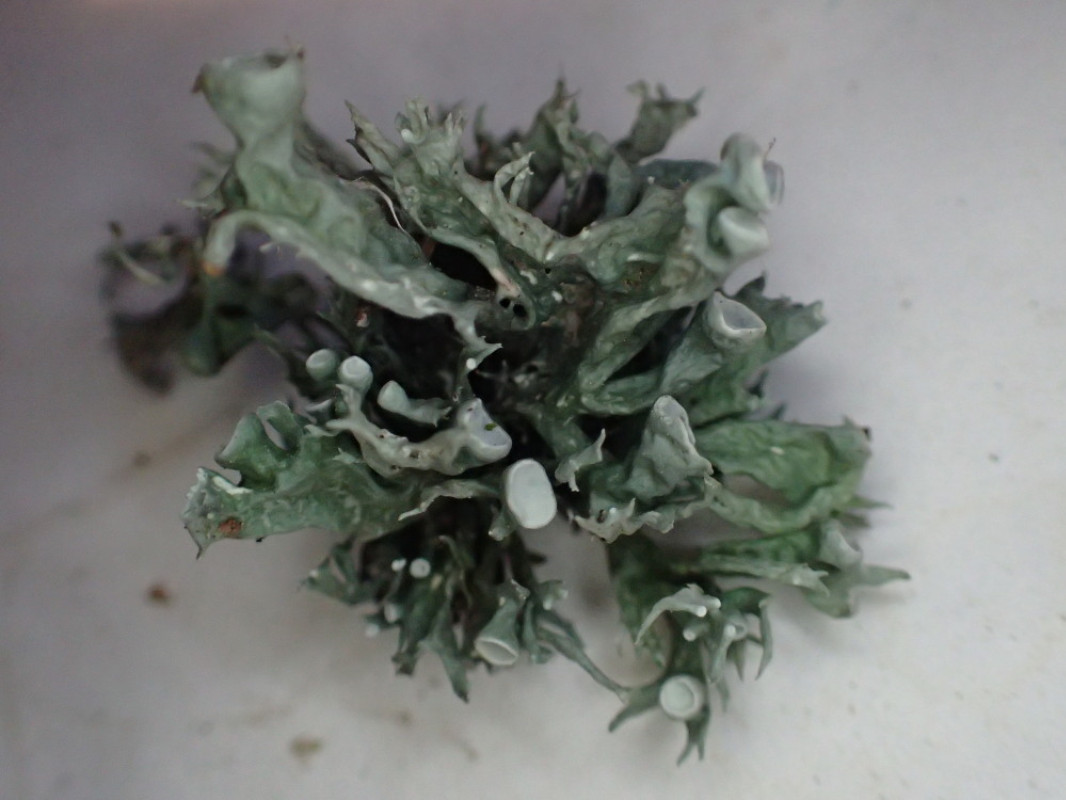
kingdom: Fungi
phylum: Ascomycota
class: Lecanoromycetes
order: Lecanorales
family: Ramalinaceae
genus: Ramalina
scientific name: Ramalina fastigiata
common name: tue-grenlav
